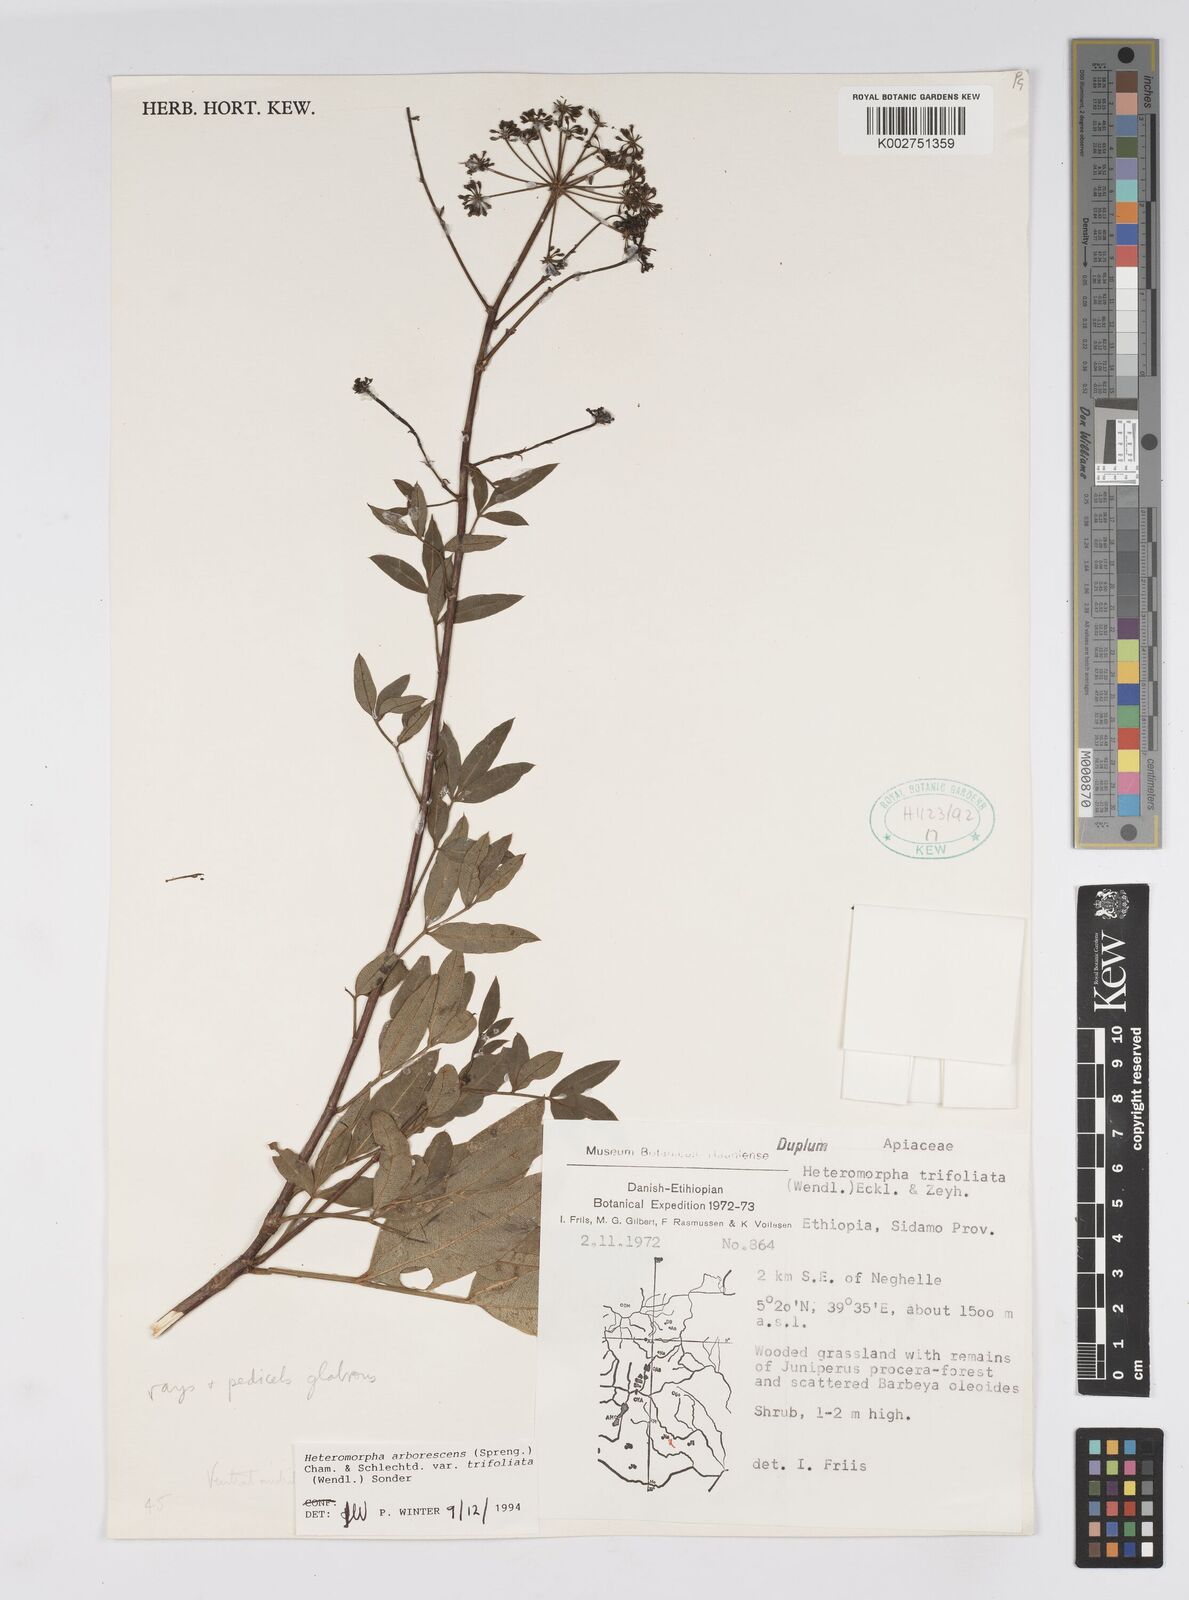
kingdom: Plantae
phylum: Tracheophyta
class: Magnoliopsida
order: Apiales
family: Apiaceae
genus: Heteromorpha
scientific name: Heteromorpha arborescens
